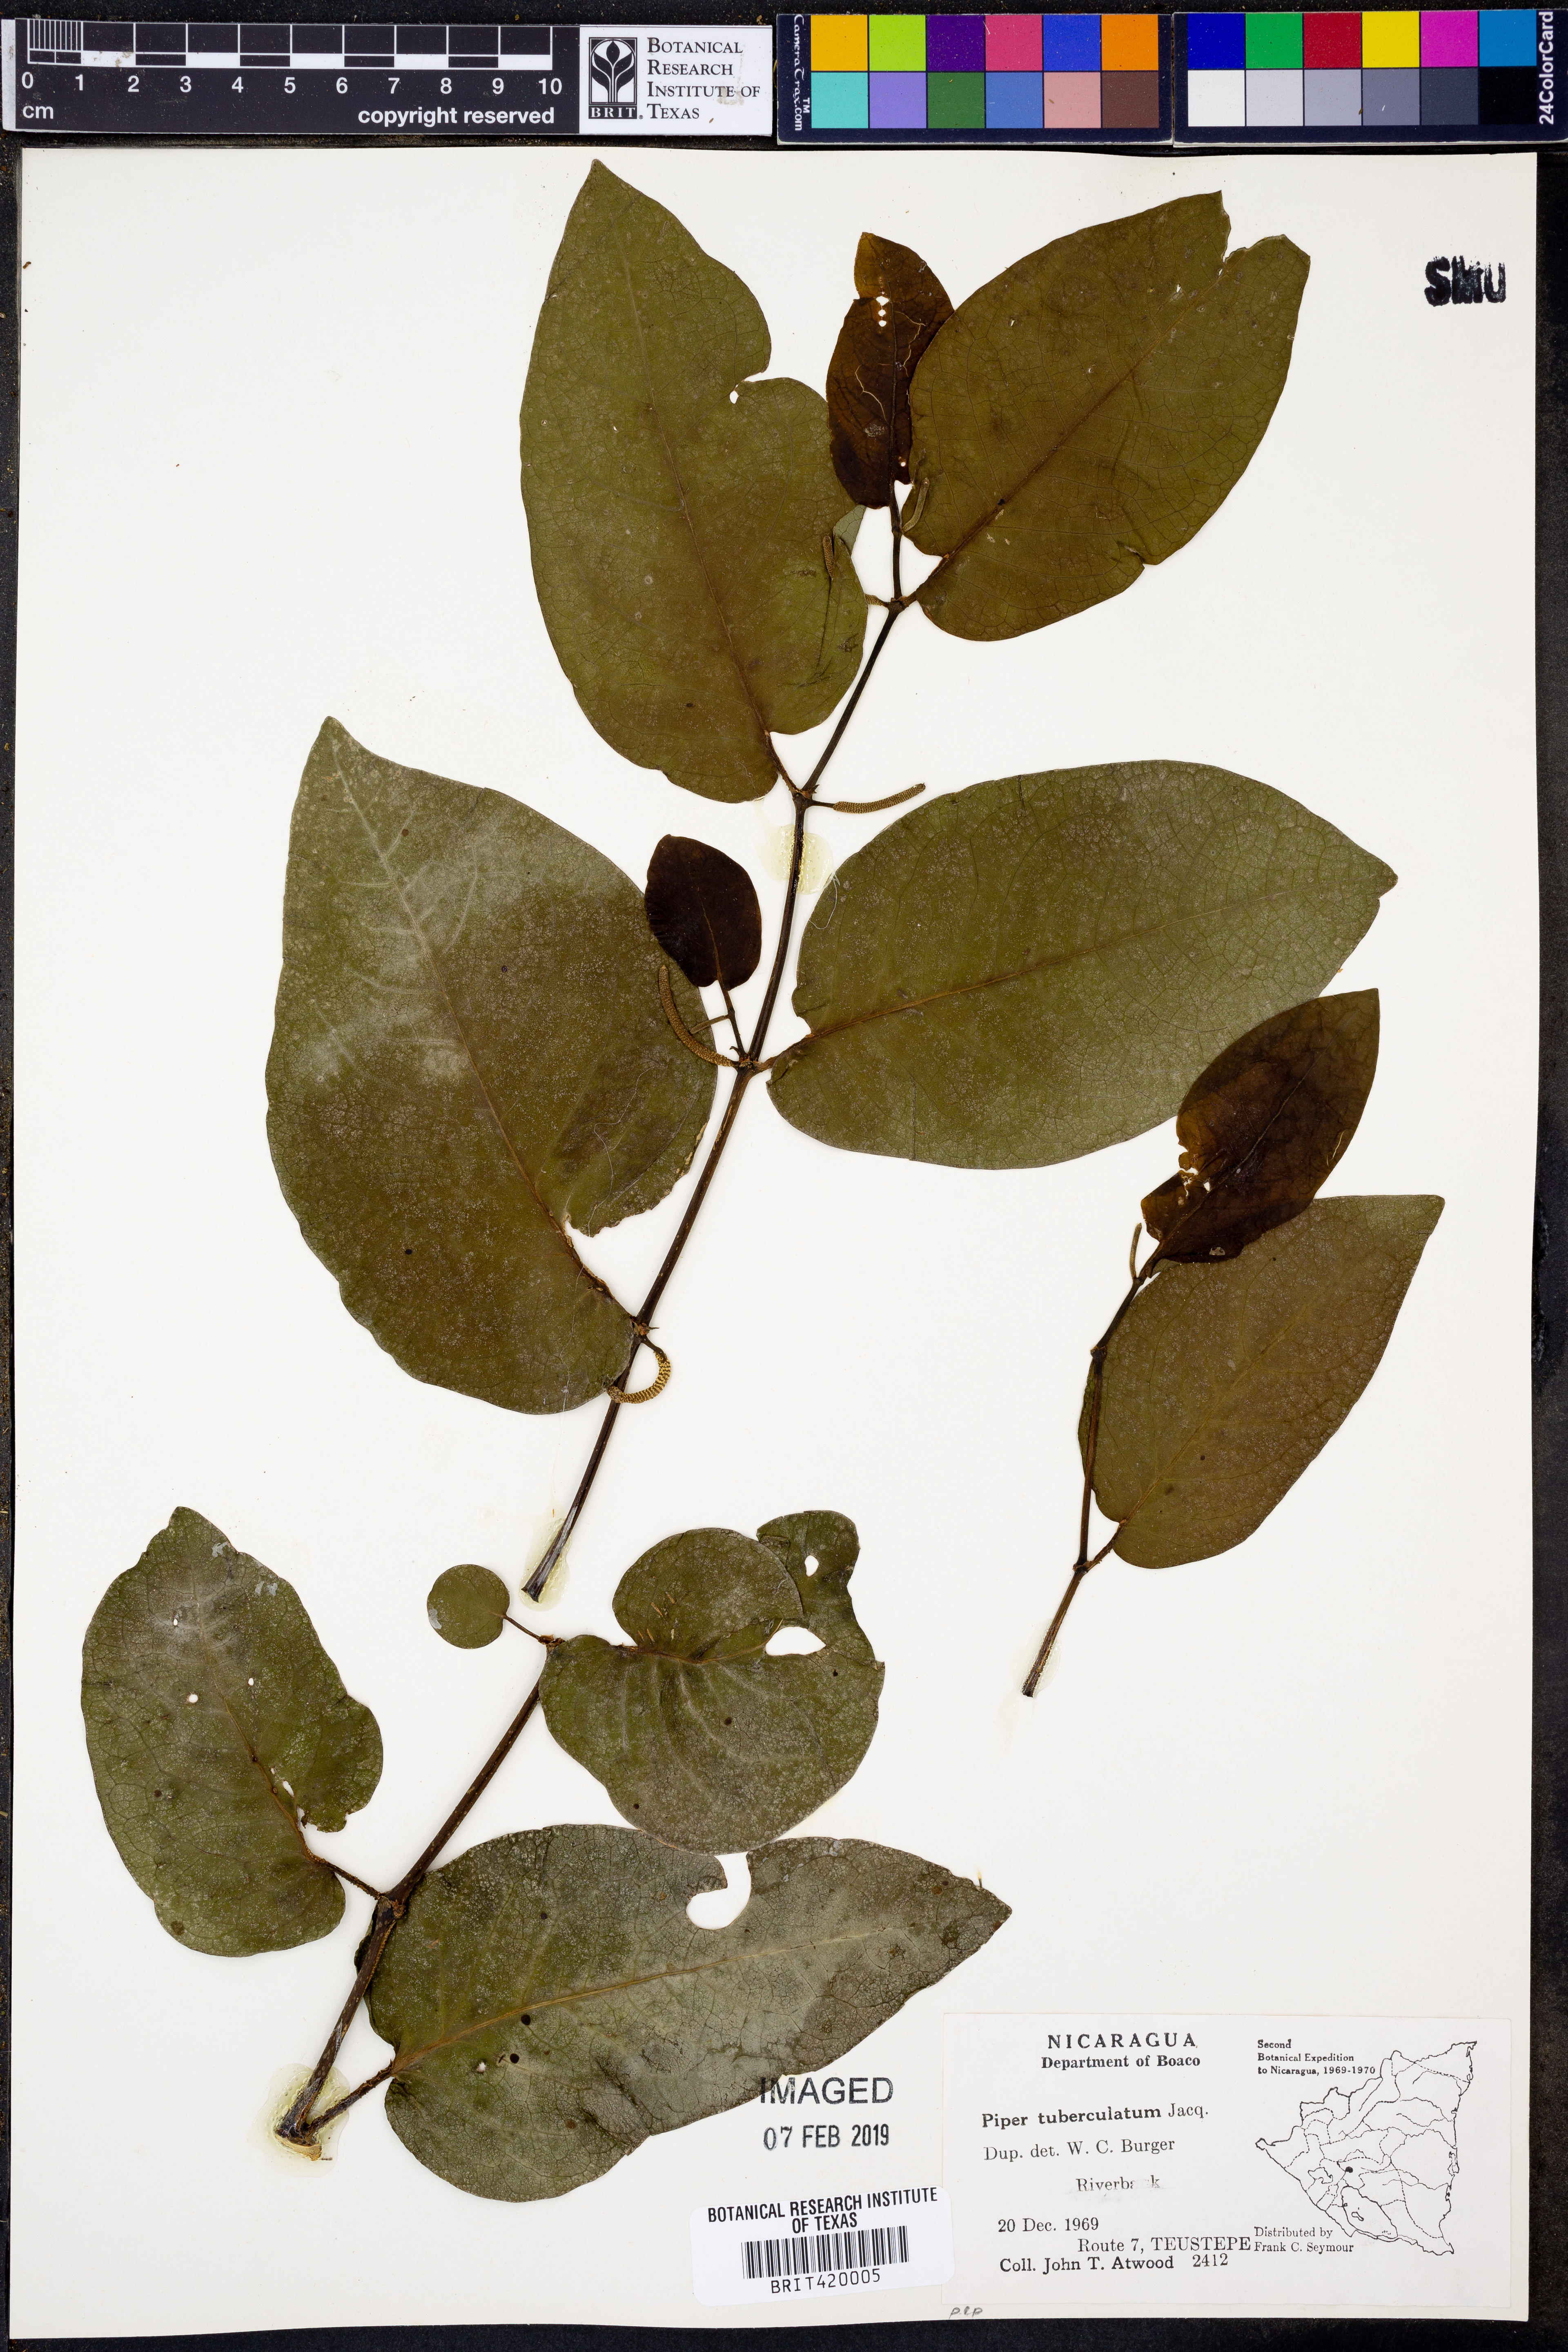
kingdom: Plantae
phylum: Tracheophyta
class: Magnoliopsida
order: Piperales
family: Piperaceae
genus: Piper
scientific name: Piper tuberculatum
